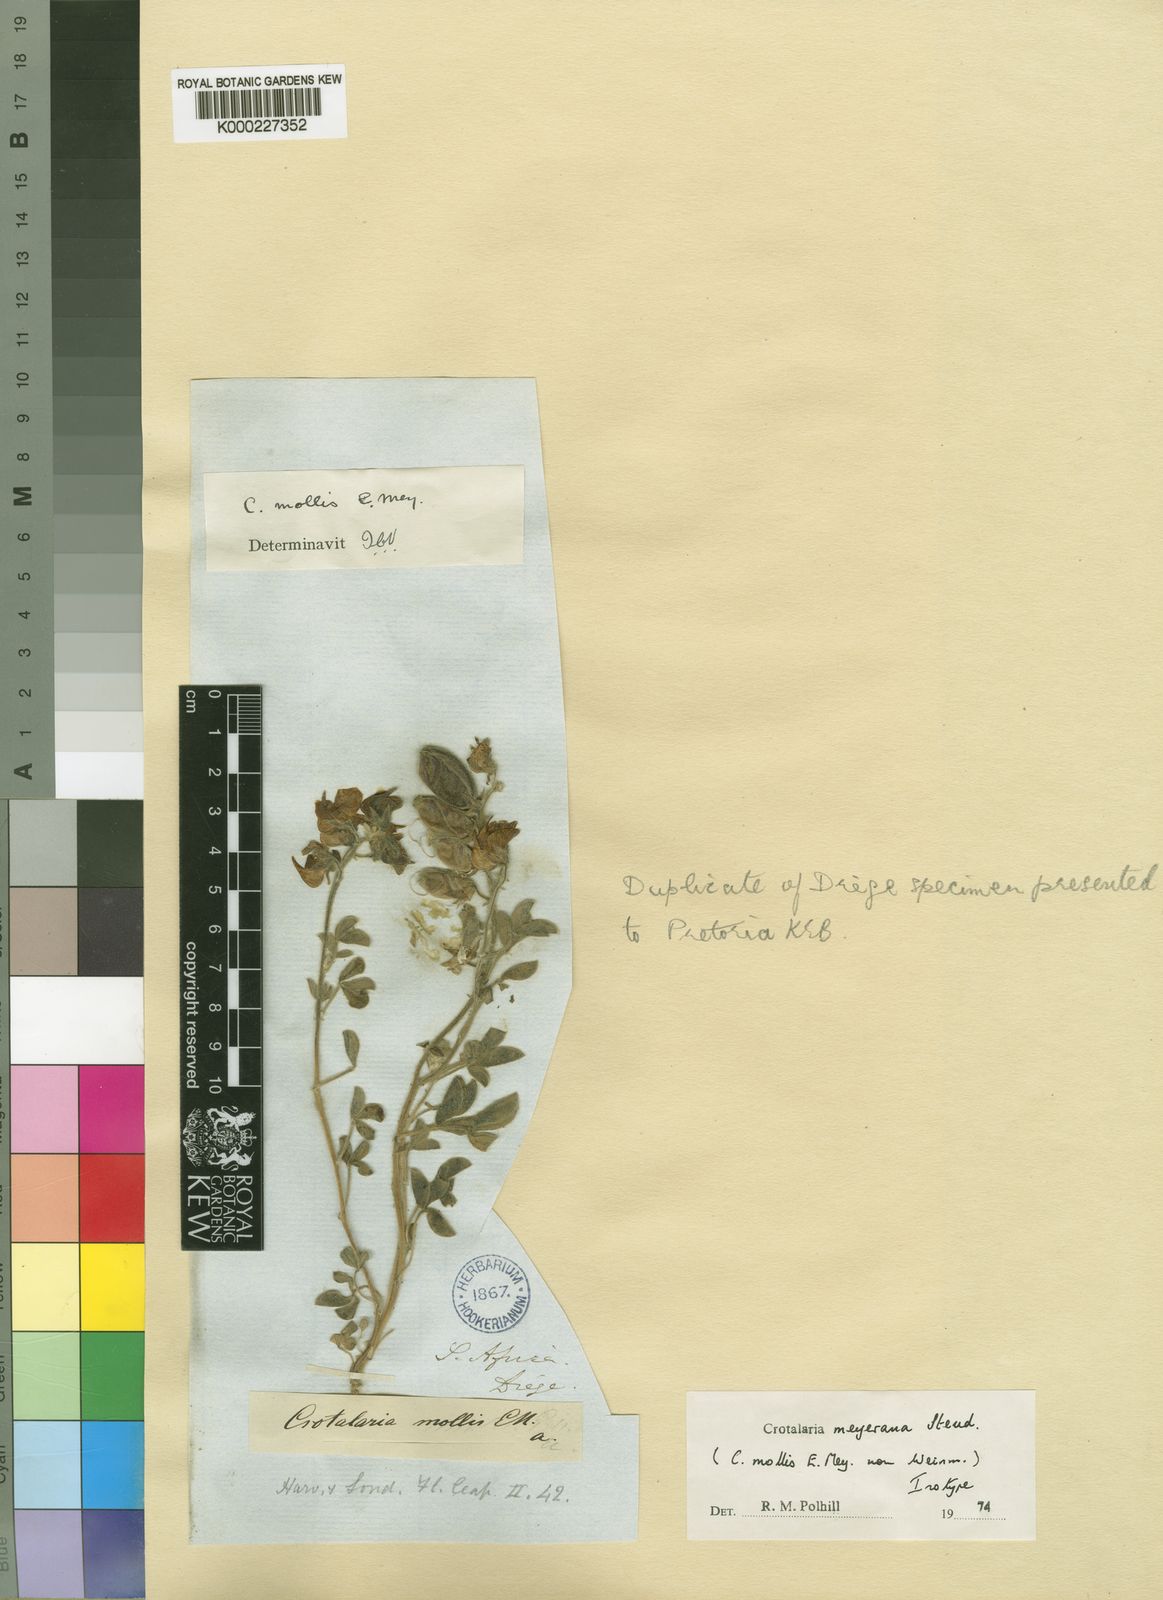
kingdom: Plantae
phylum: Tracheophyta
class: Magnoliopsida
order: Fabales
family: Fabaceae
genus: Crotalaria
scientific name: Crotalaria meyeriana
